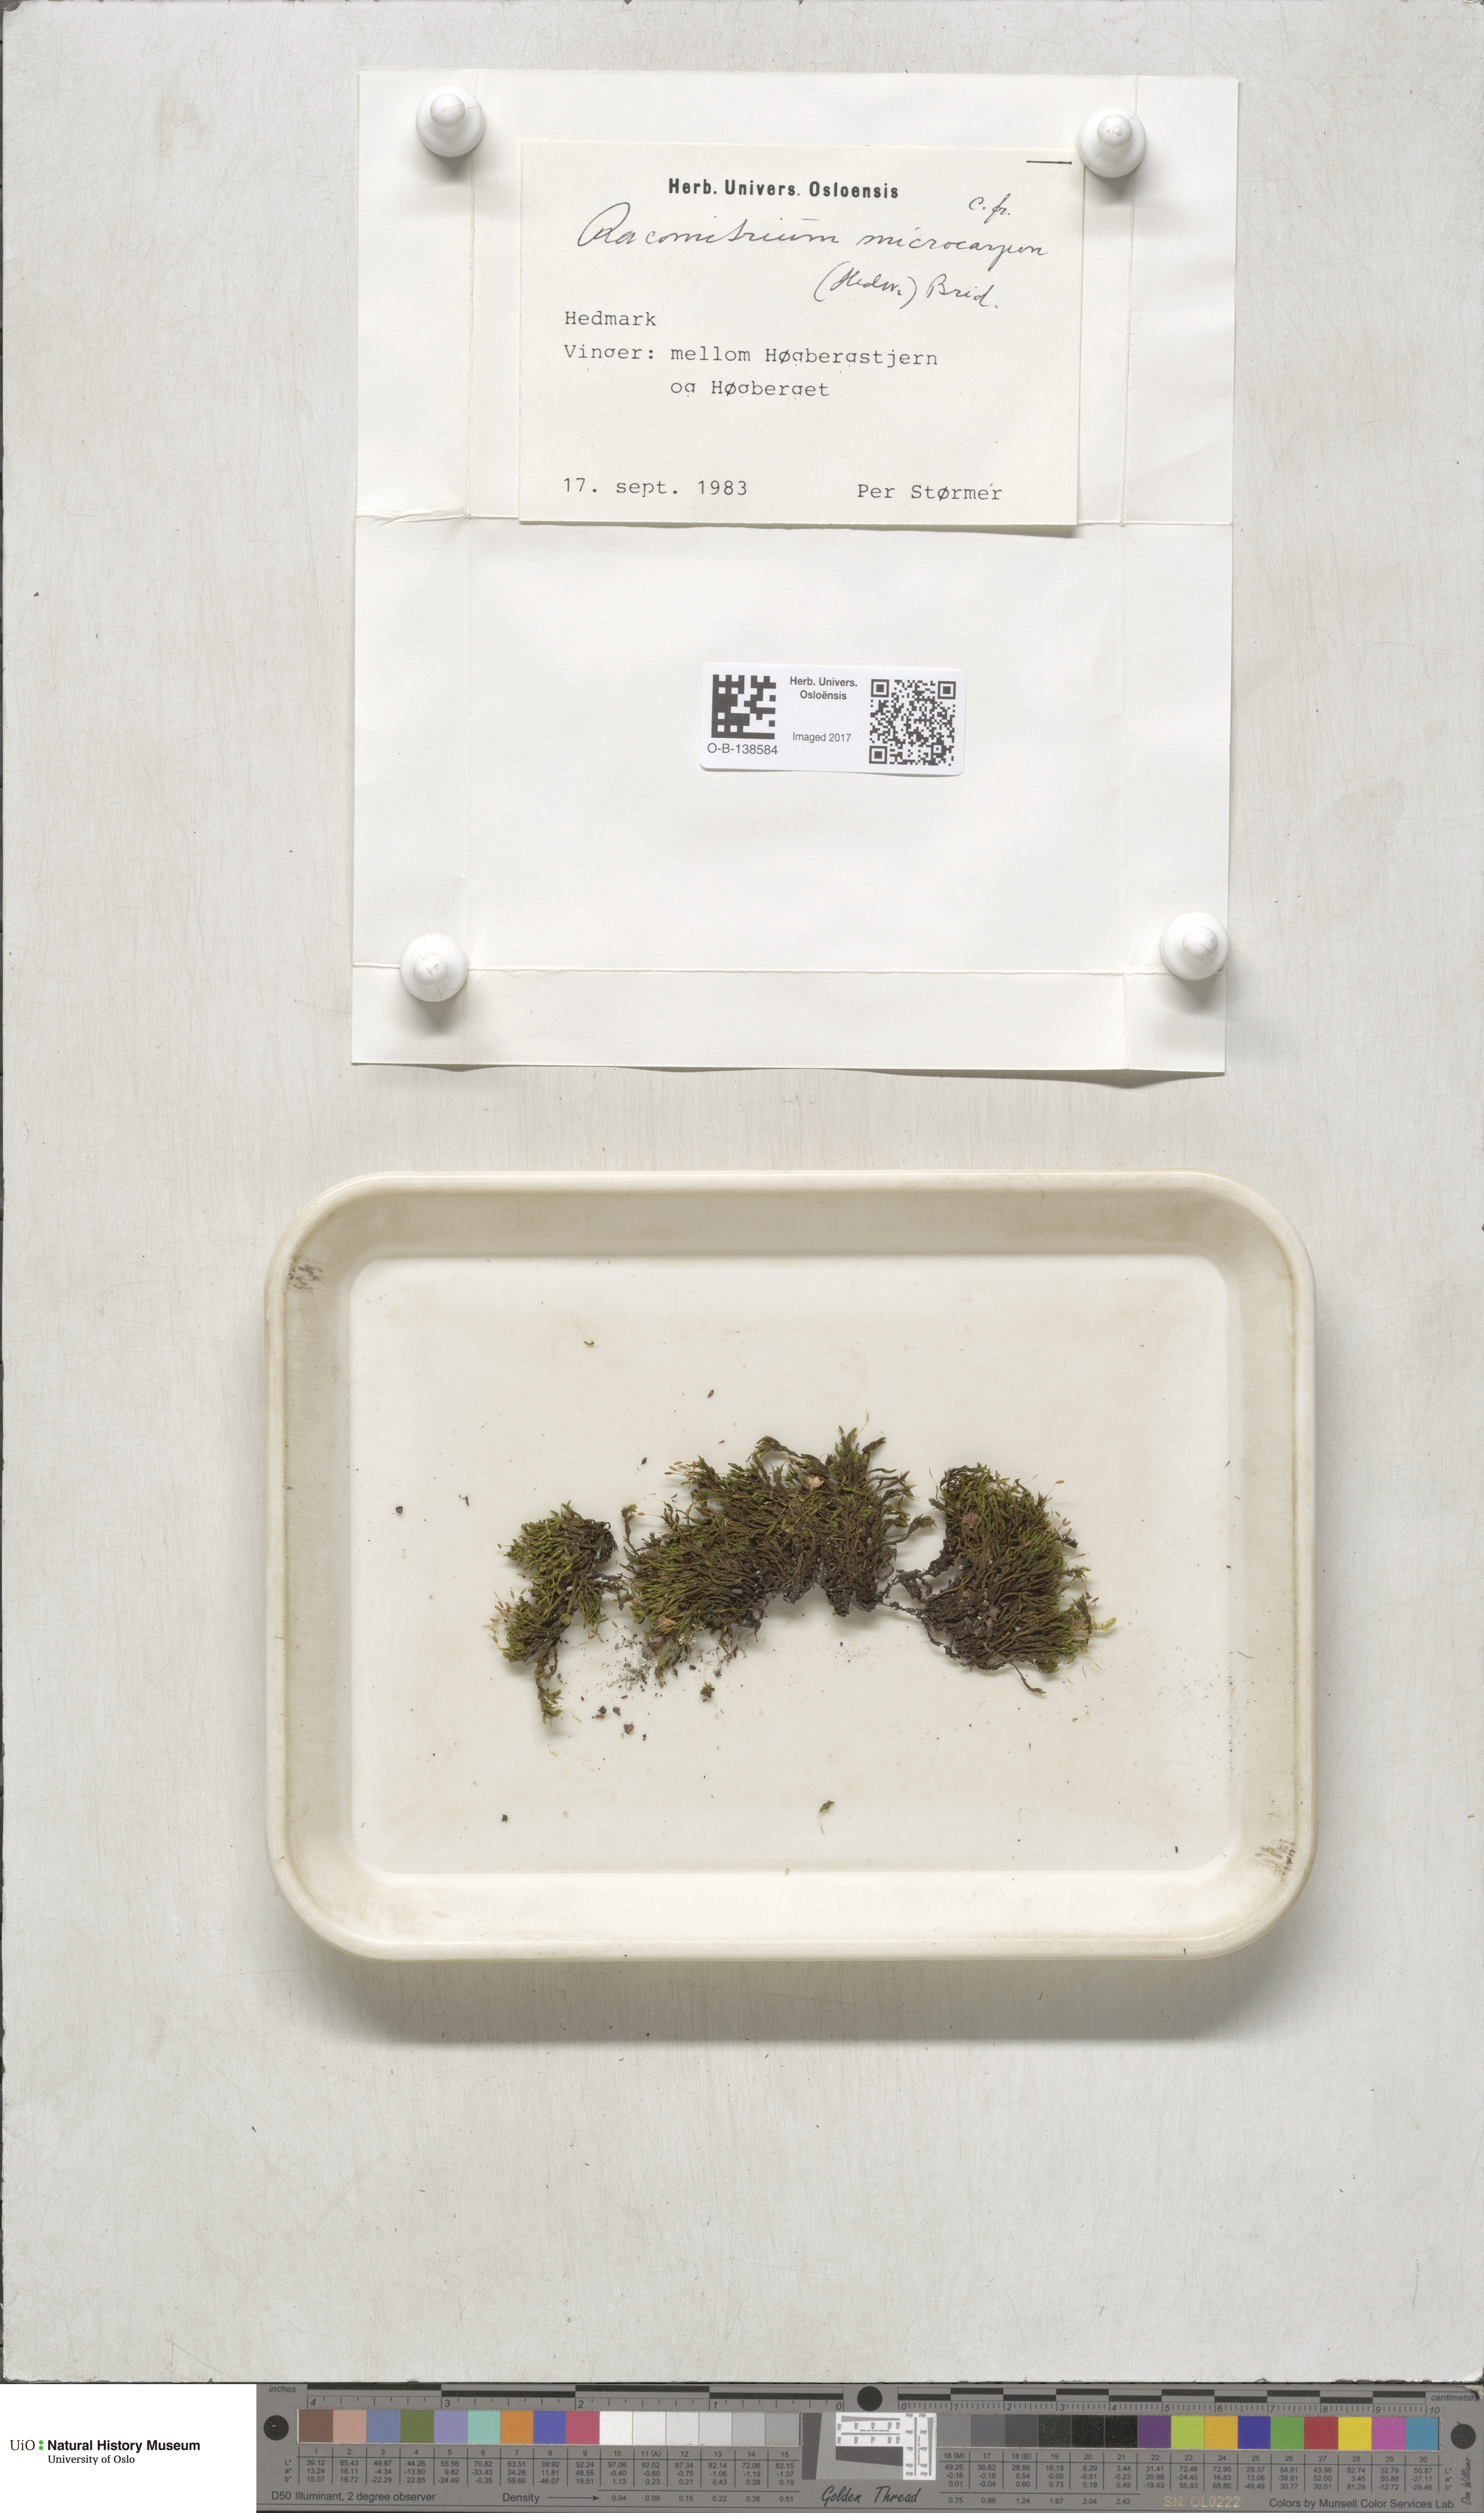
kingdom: Plantae
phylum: Bryophyta
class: Bryopsida
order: Grimmiales
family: Grimmiaceae
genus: Bucklandiella
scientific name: Bucklandiella microcarpos
